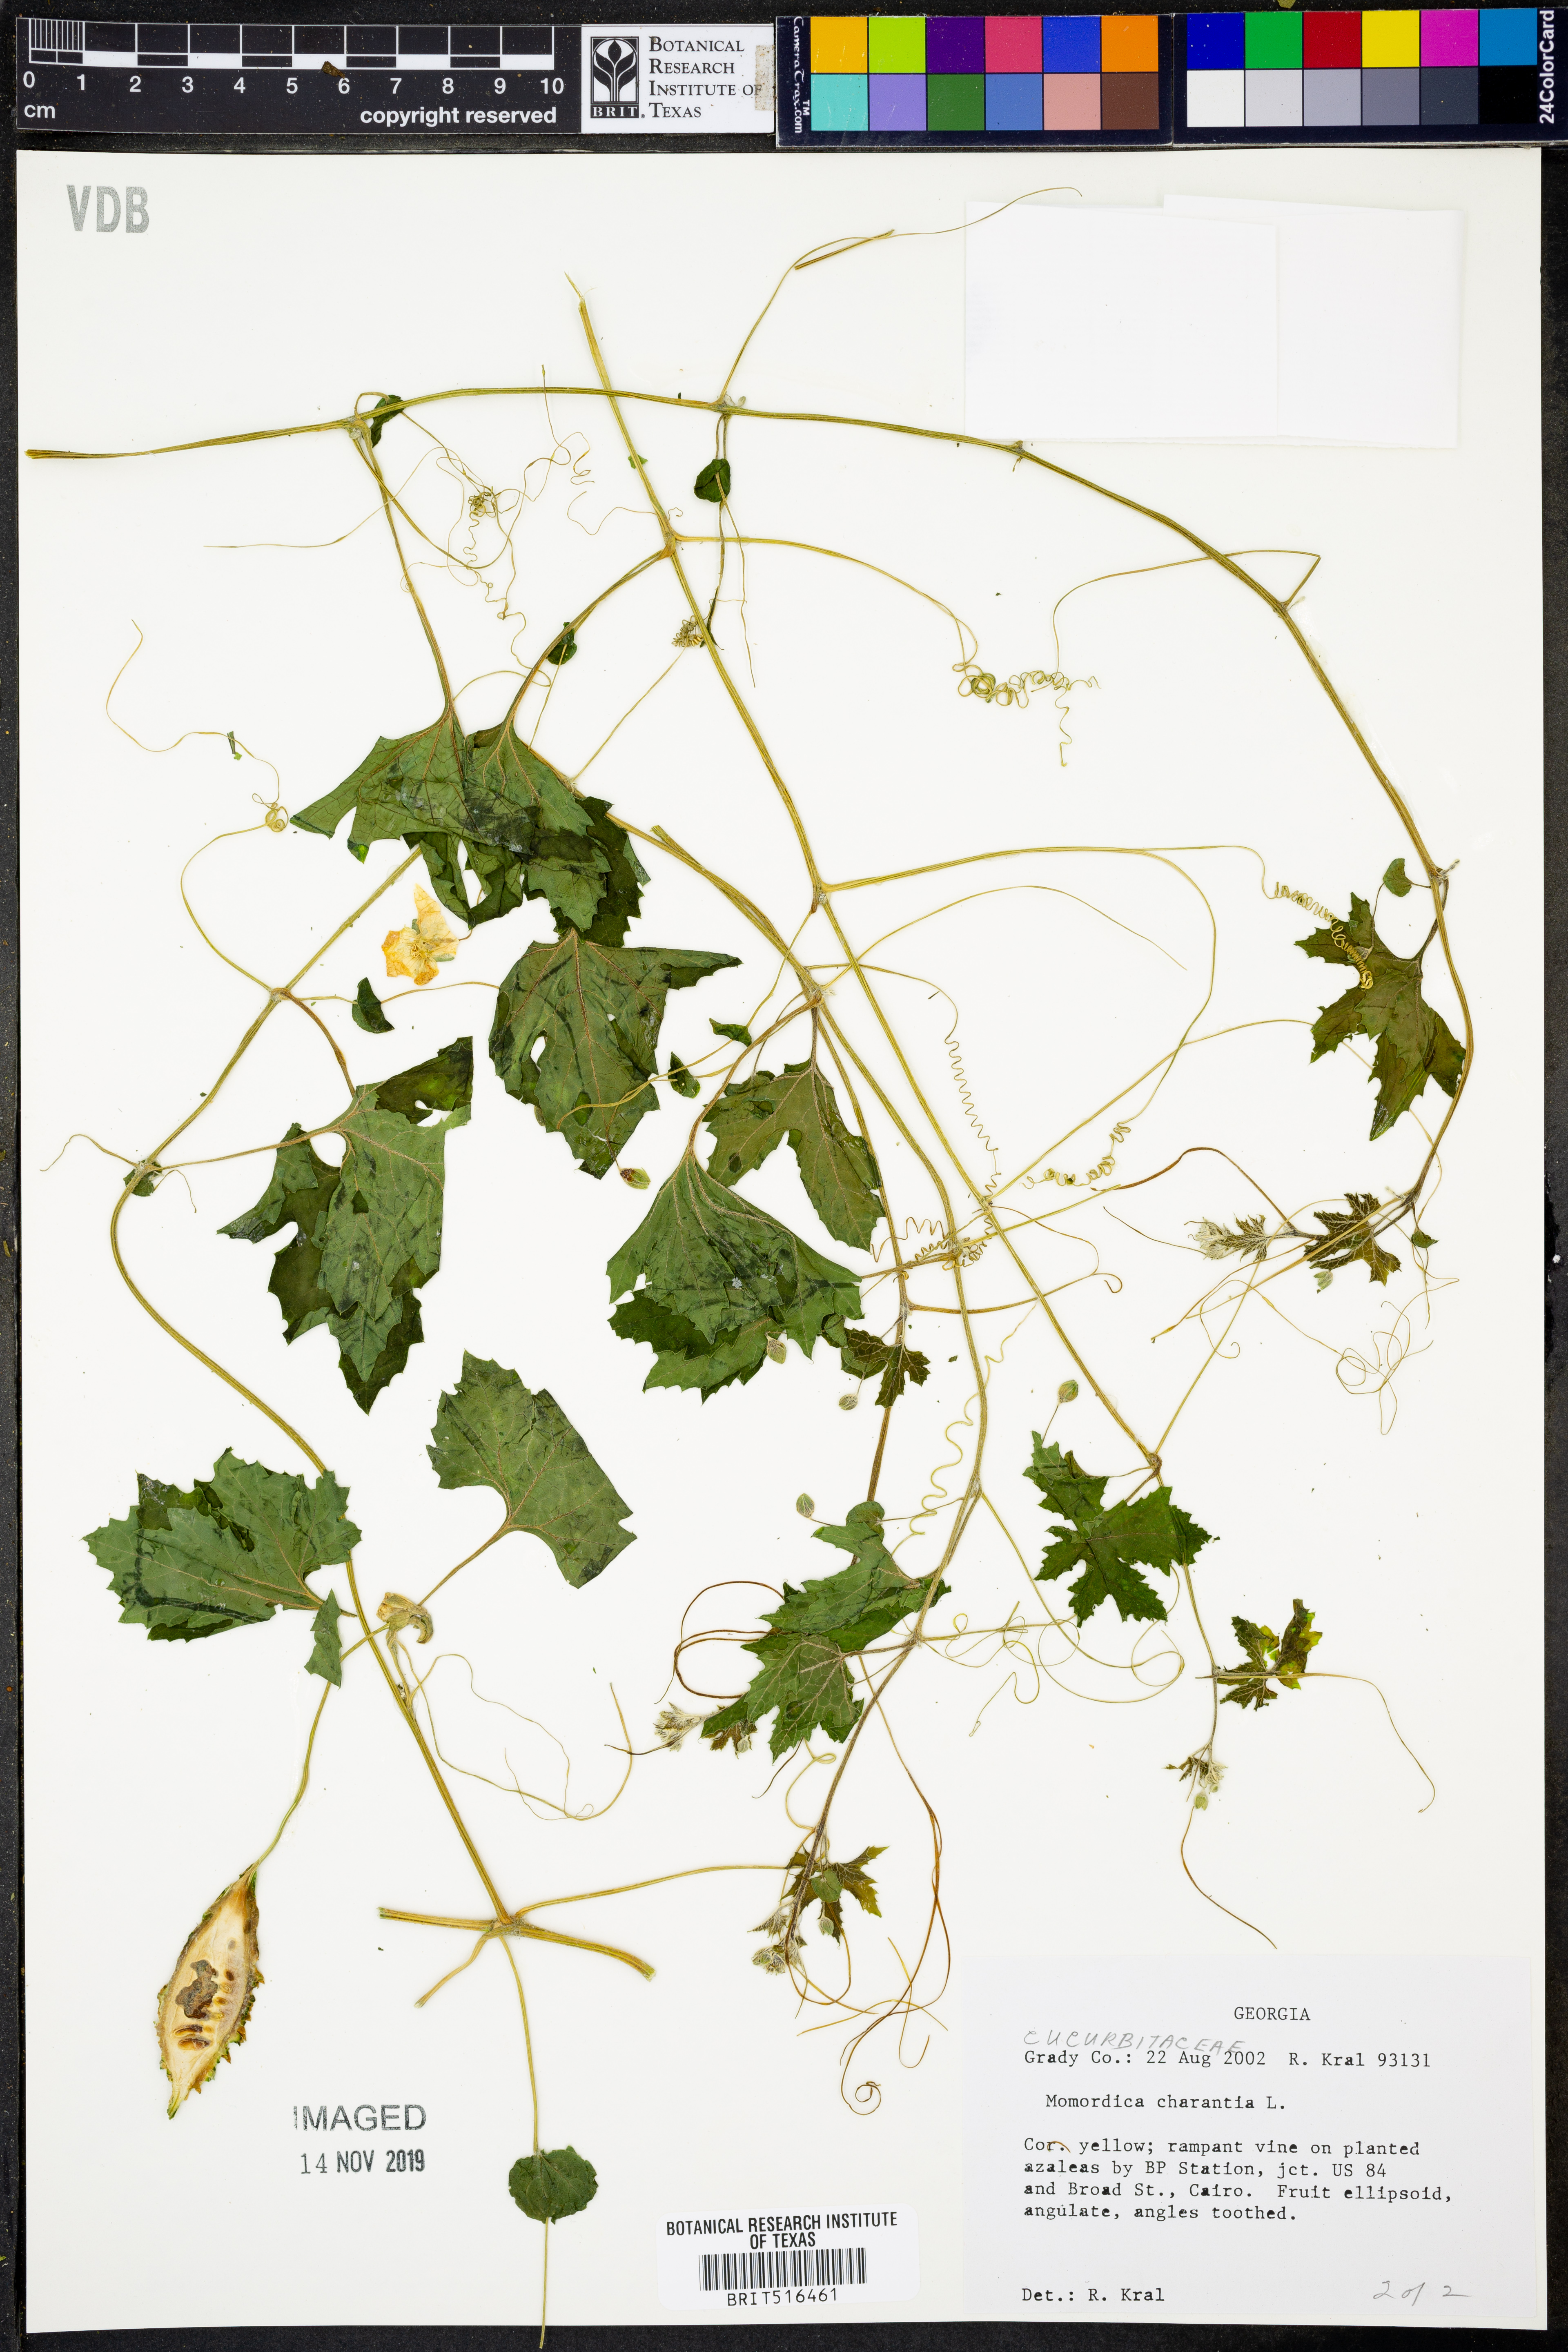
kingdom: Plantae
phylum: Tracheophyta
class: Magnoliopsida
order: Cucurbitales
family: Cucurbitaceae
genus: Momordica
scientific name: Momordica charantia
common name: Balsampear
